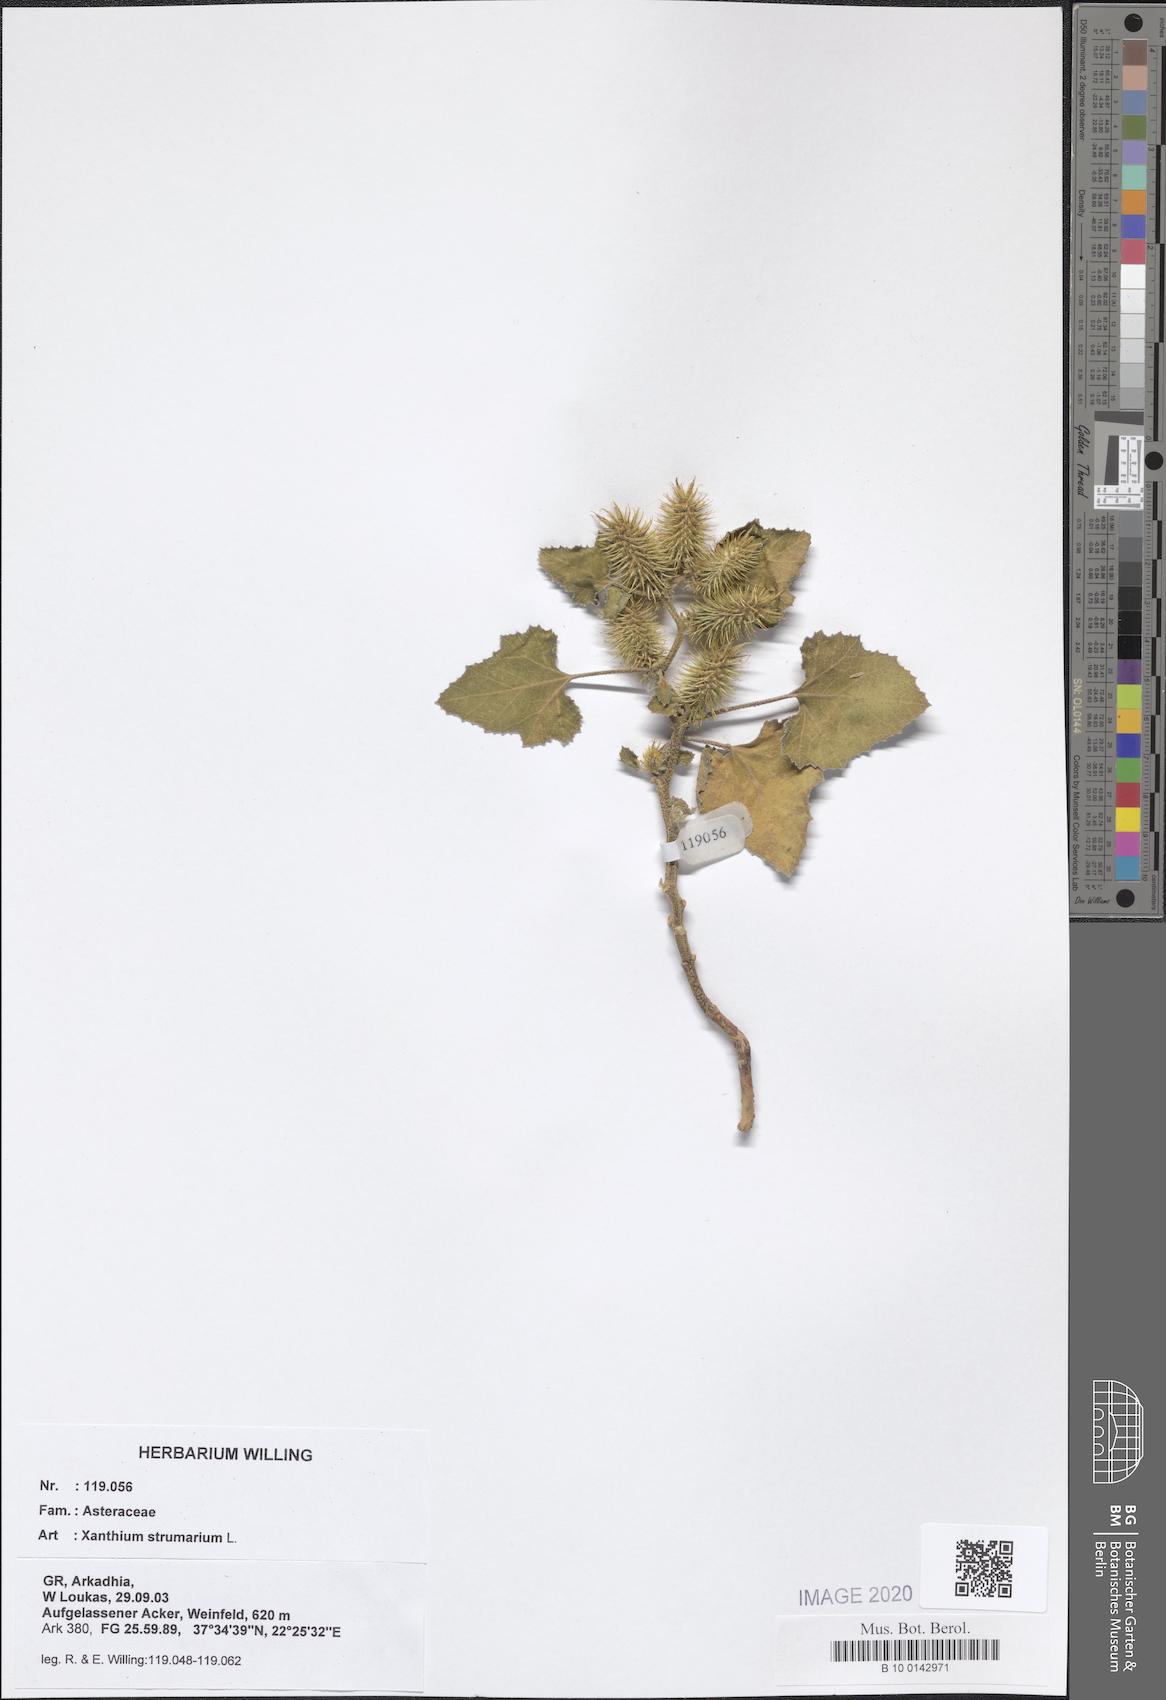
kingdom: Plantae
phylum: Tracheophyta
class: Magnoliopsida
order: Asterales
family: Asteraceae
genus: Xanthium
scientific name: Xanthium strumarium
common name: Rough cocklebur
